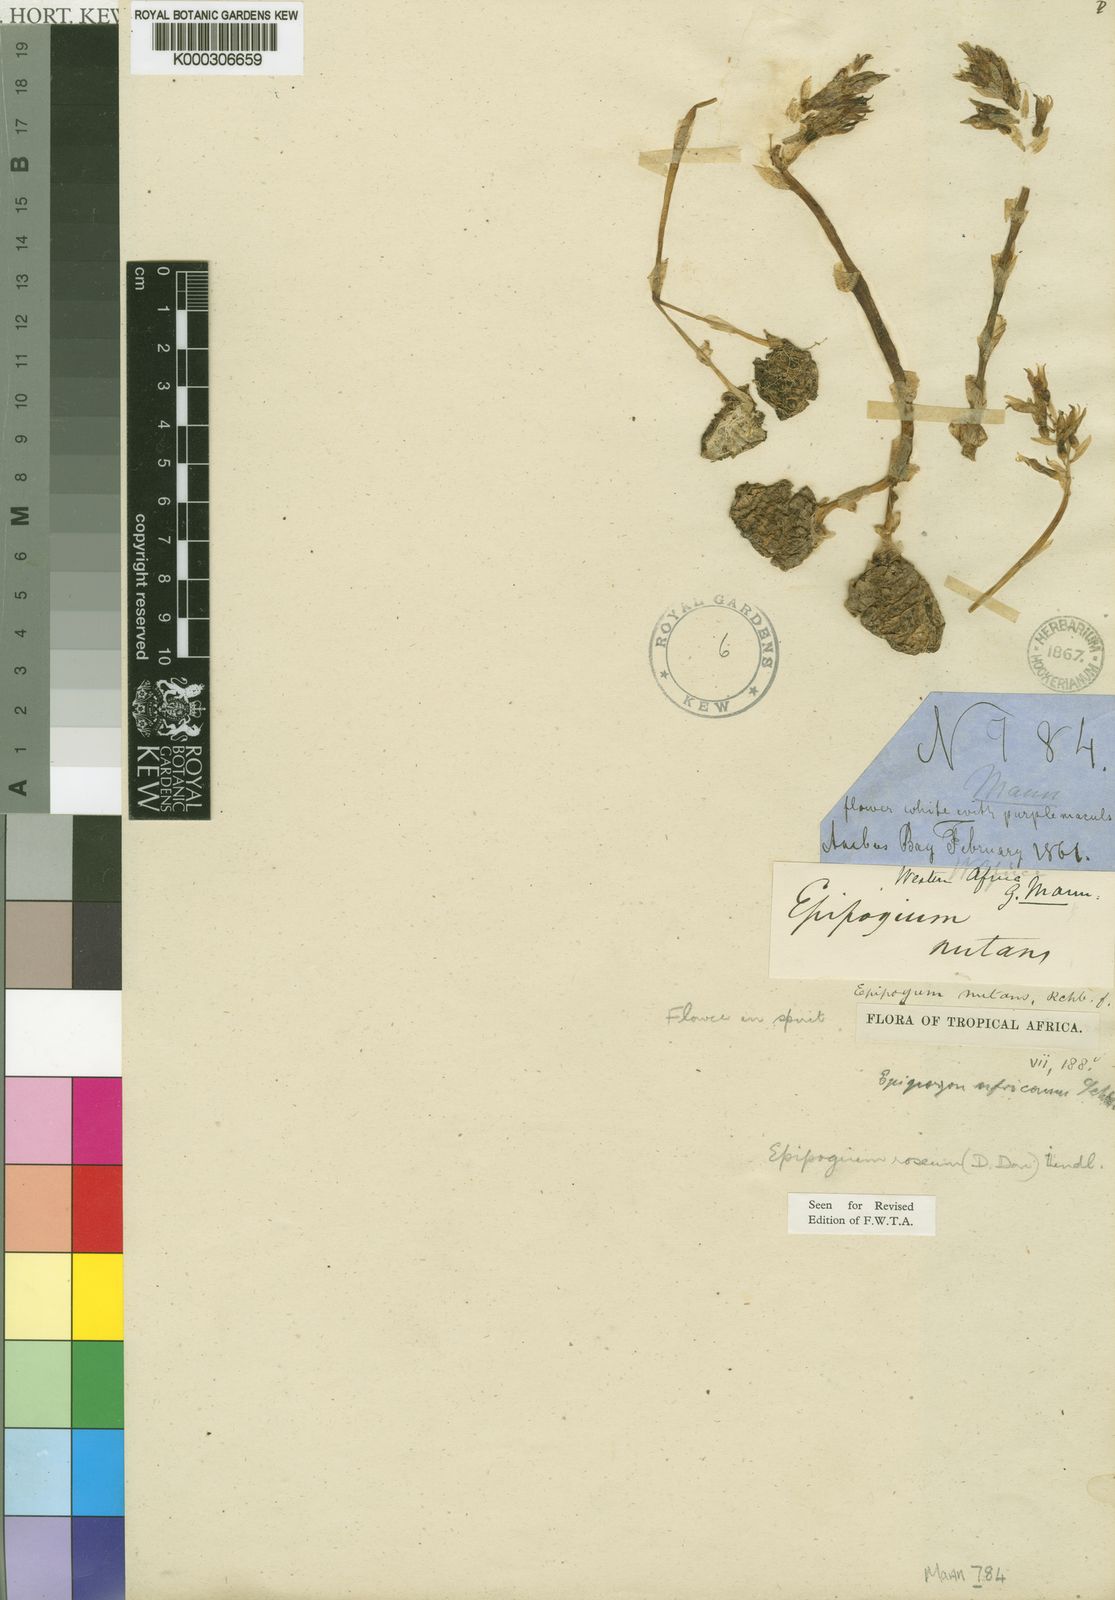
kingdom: Plantae
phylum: Tracheophyta
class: Liliopsida
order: Asparagales
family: Orchidaceae
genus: Epipogium
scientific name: Epipogium roseum
